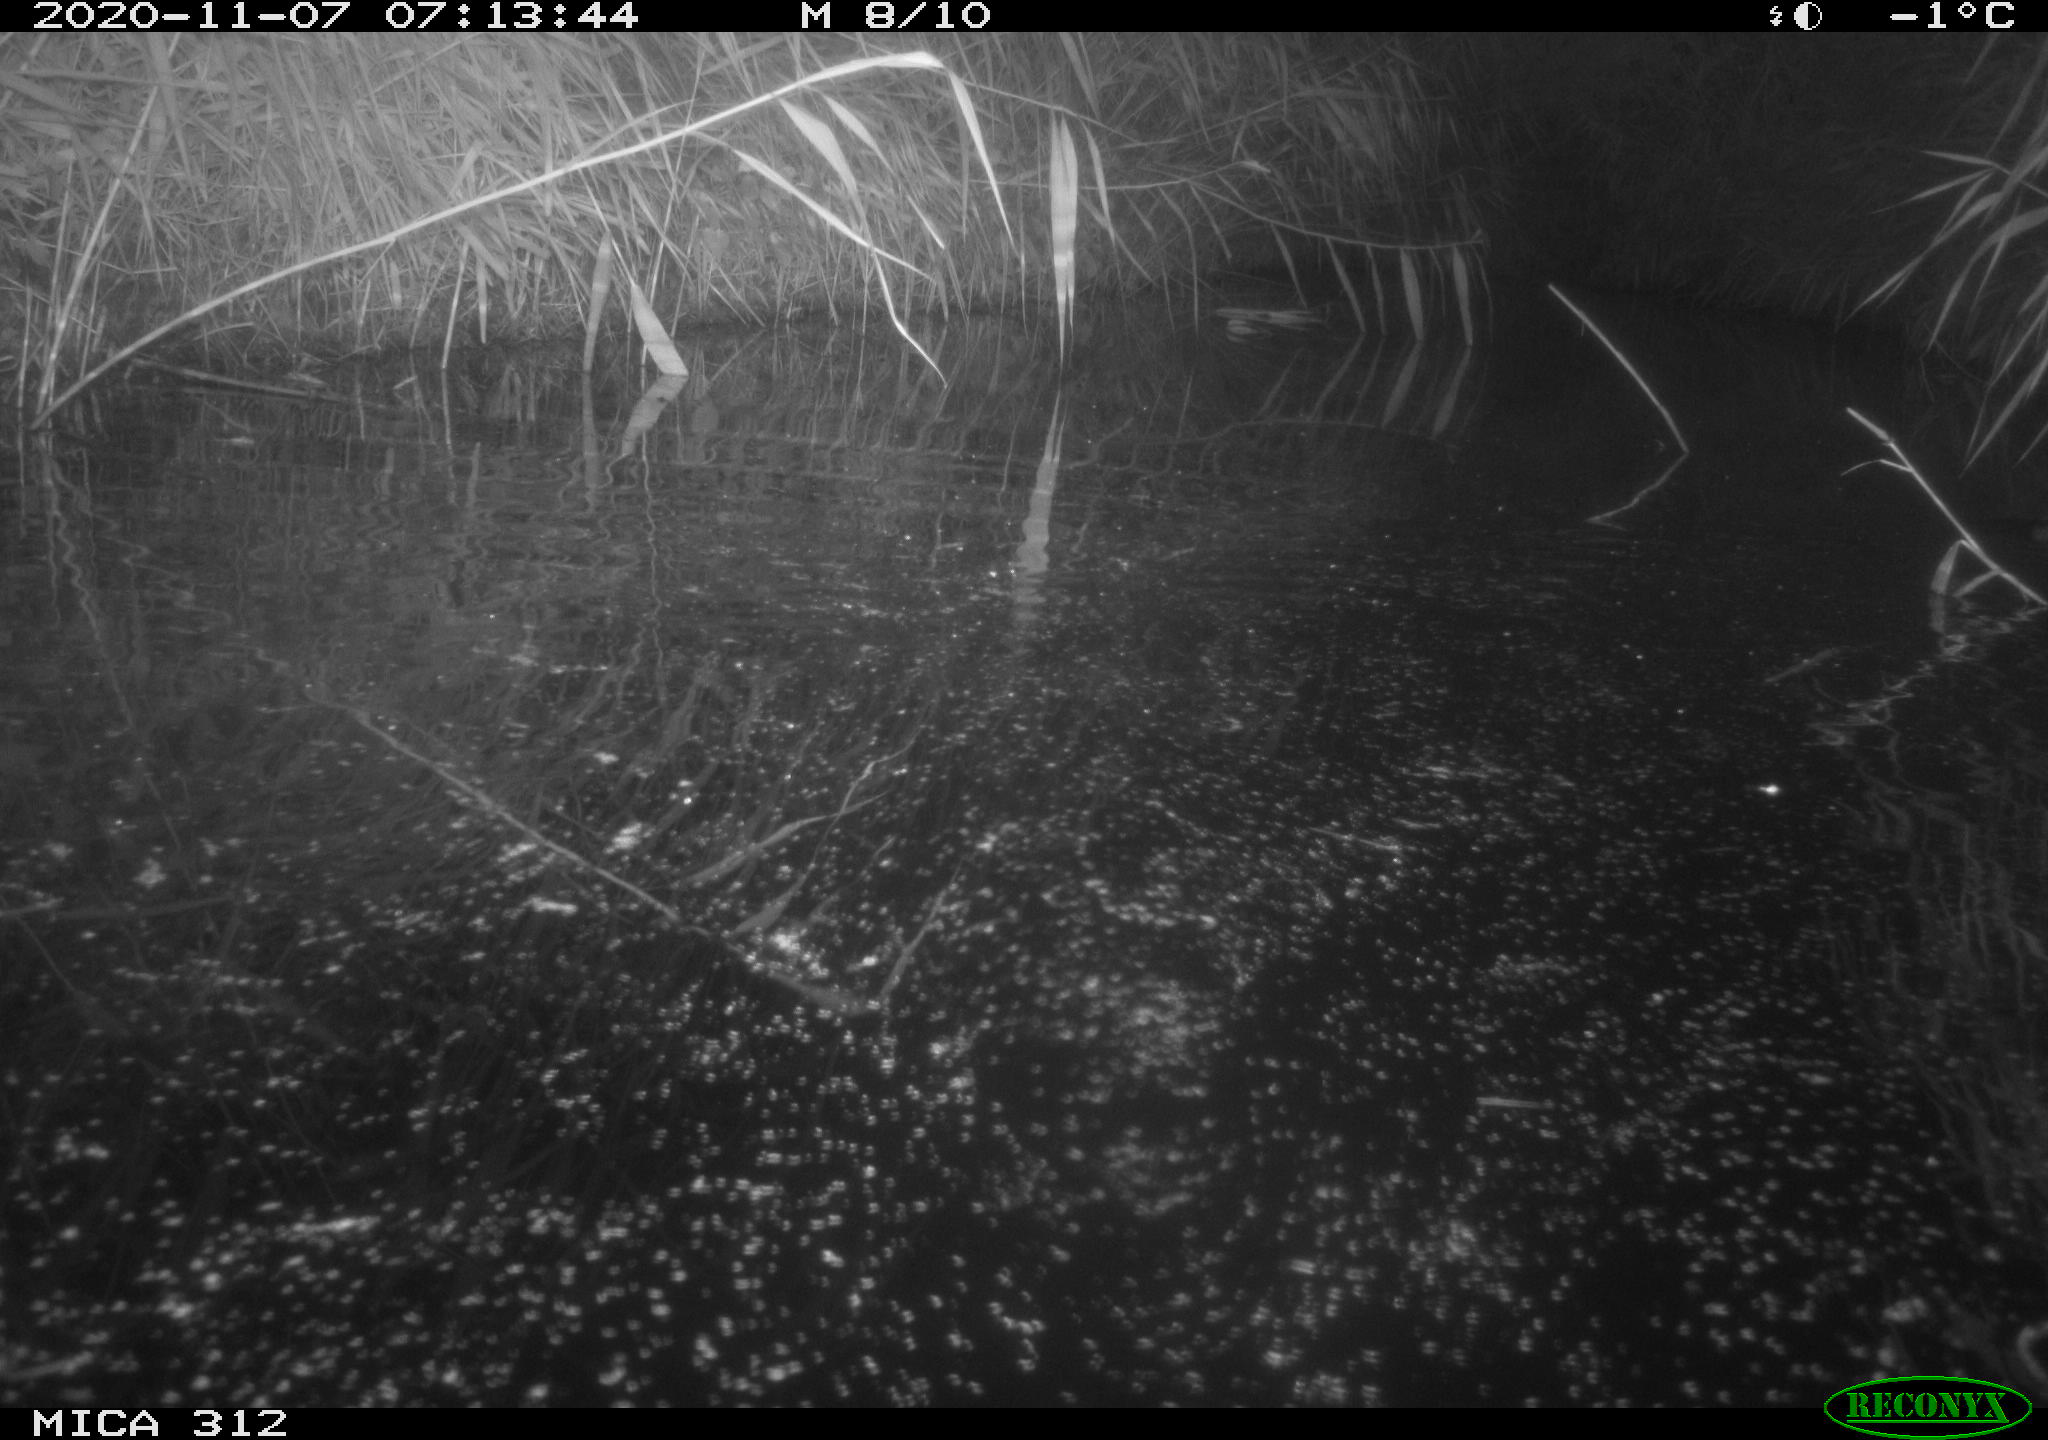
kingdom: Animalia
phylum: Chordata
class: Mammalia
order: Rodentia
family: Muridae
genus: Rattus
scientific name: Rattus norvegicus
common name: Brown rat
